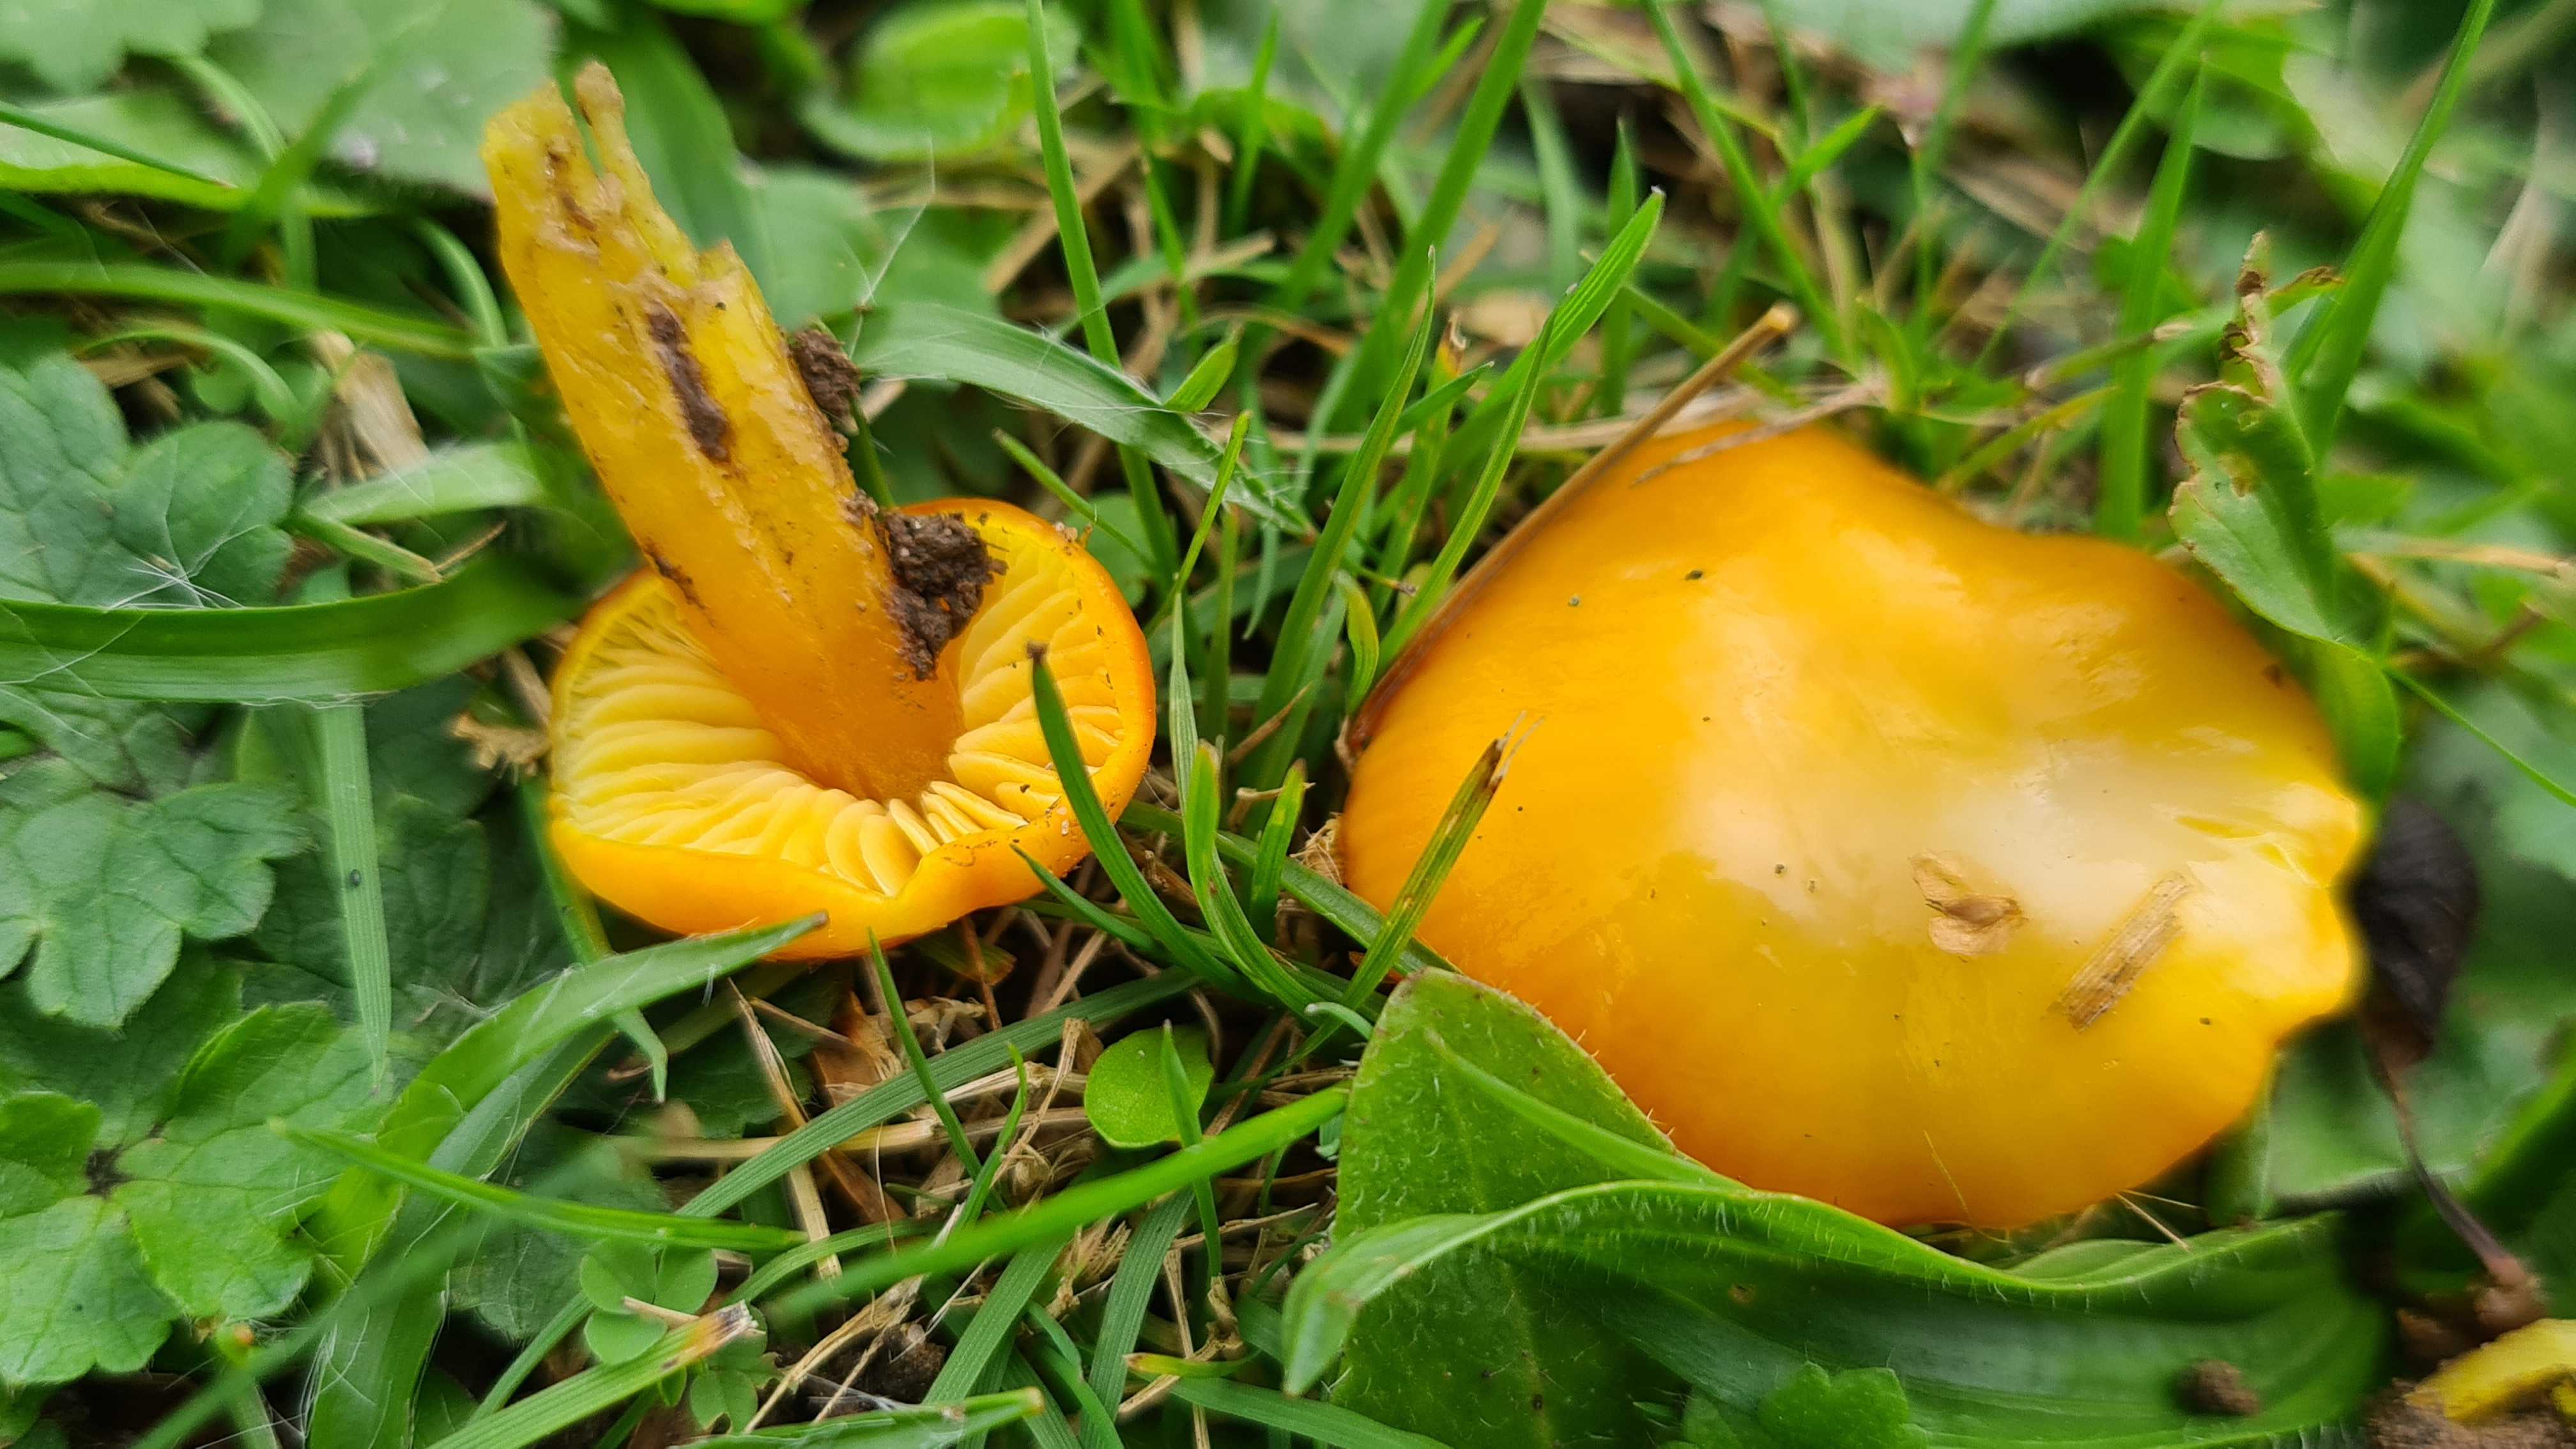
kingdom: Fungi
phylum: Basidiomycota
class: Agaricomycetes
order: Agaricales
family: Hygrophoraceae
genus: Hygrocybe
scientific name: Hygrocybe chlorophana
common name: gul vokshat
